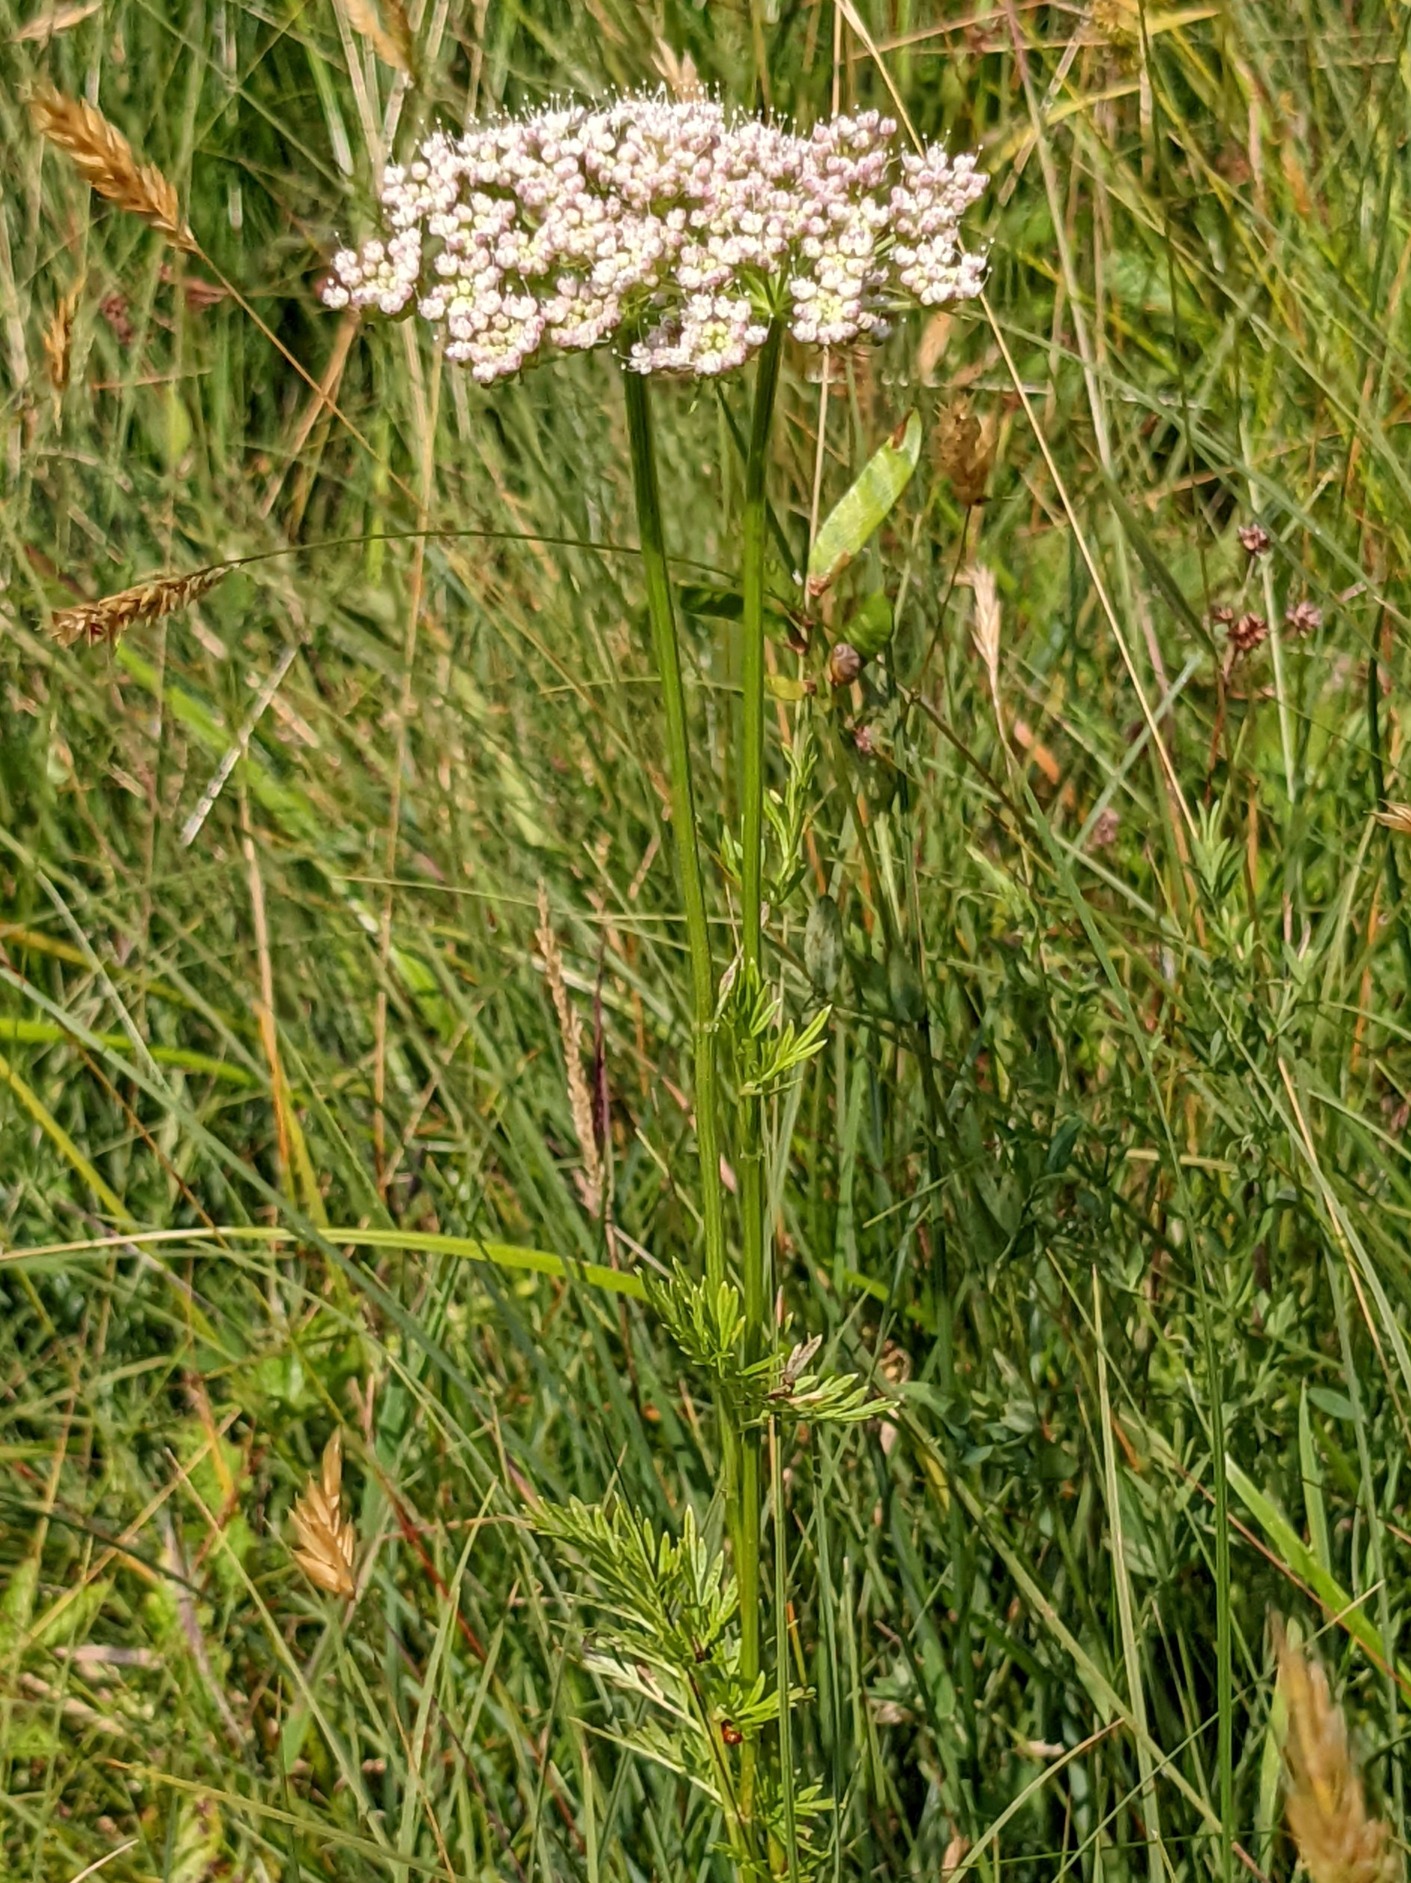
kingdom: Plantae
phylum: Tracheophyta
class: Magnoliopsida
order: Apiales
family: Apiaceae
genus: Selinum
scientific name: Selinum carvifolia
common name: Seline
